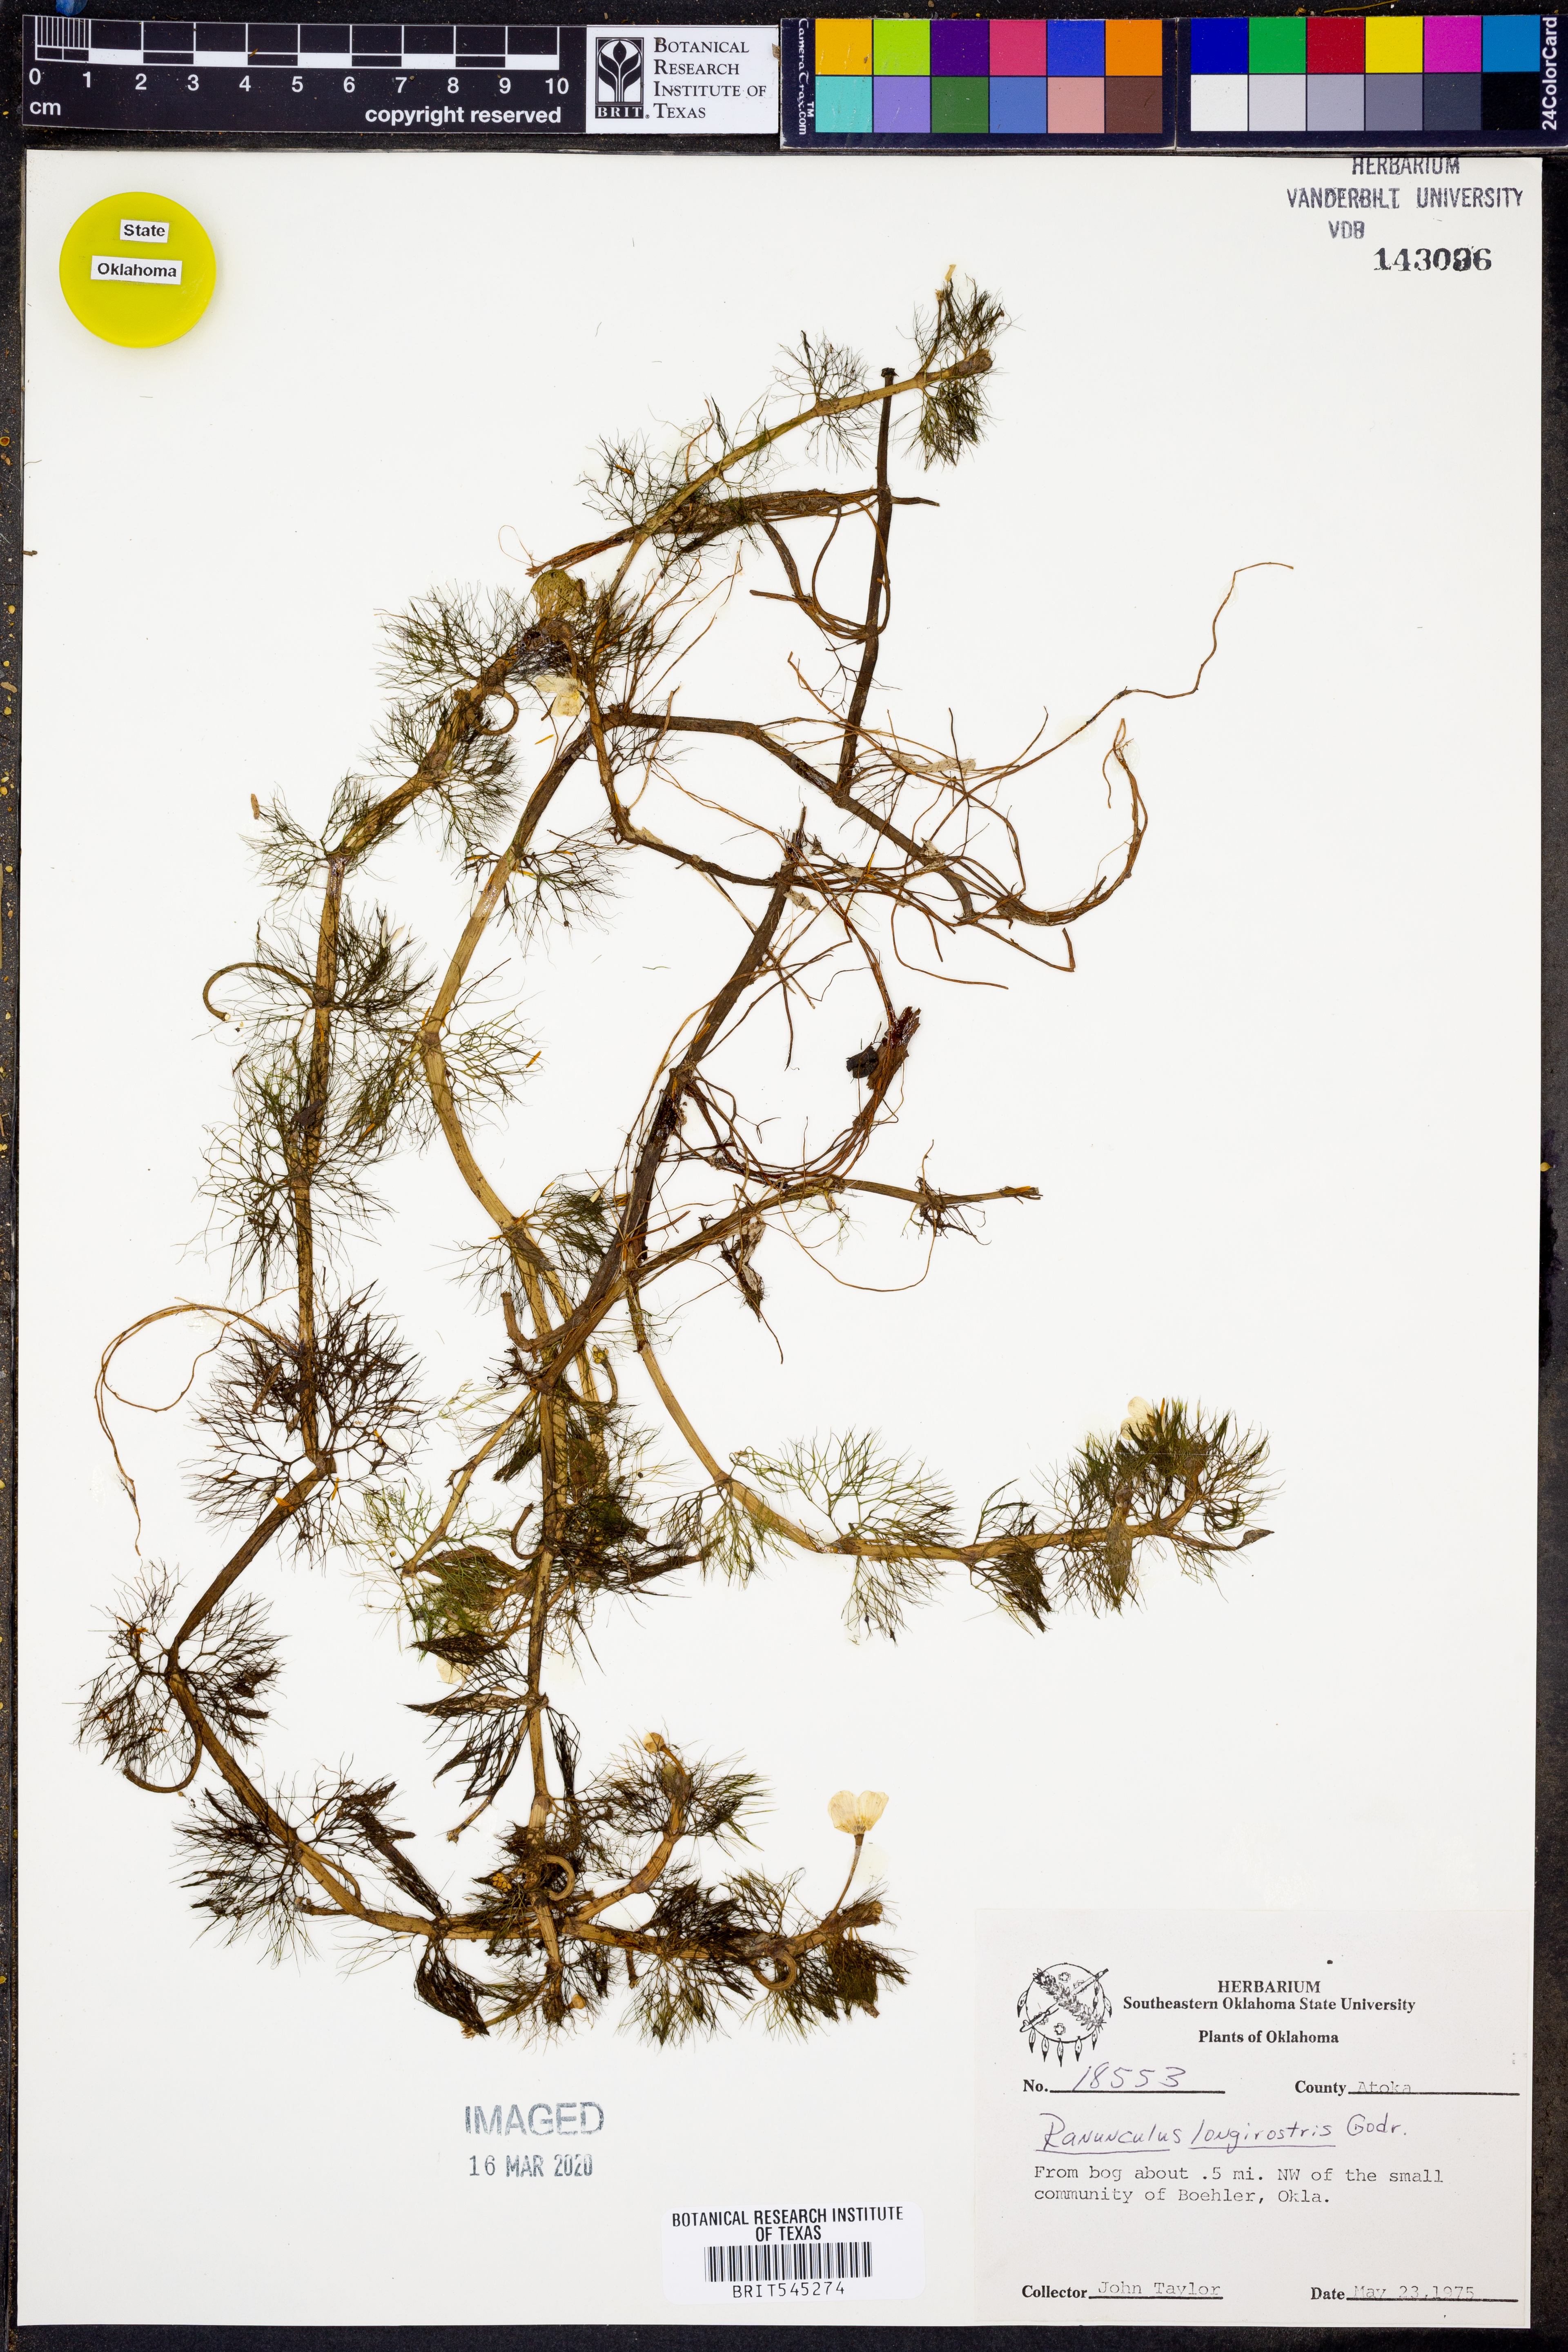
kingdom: Plantae
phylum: Tracheophyta
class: Magnoliopsida
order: Ranunculales
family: Ranunculaceae
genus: Ranunculus
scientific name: Ranunculus longirostris
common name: Curly white water-crowfoot
